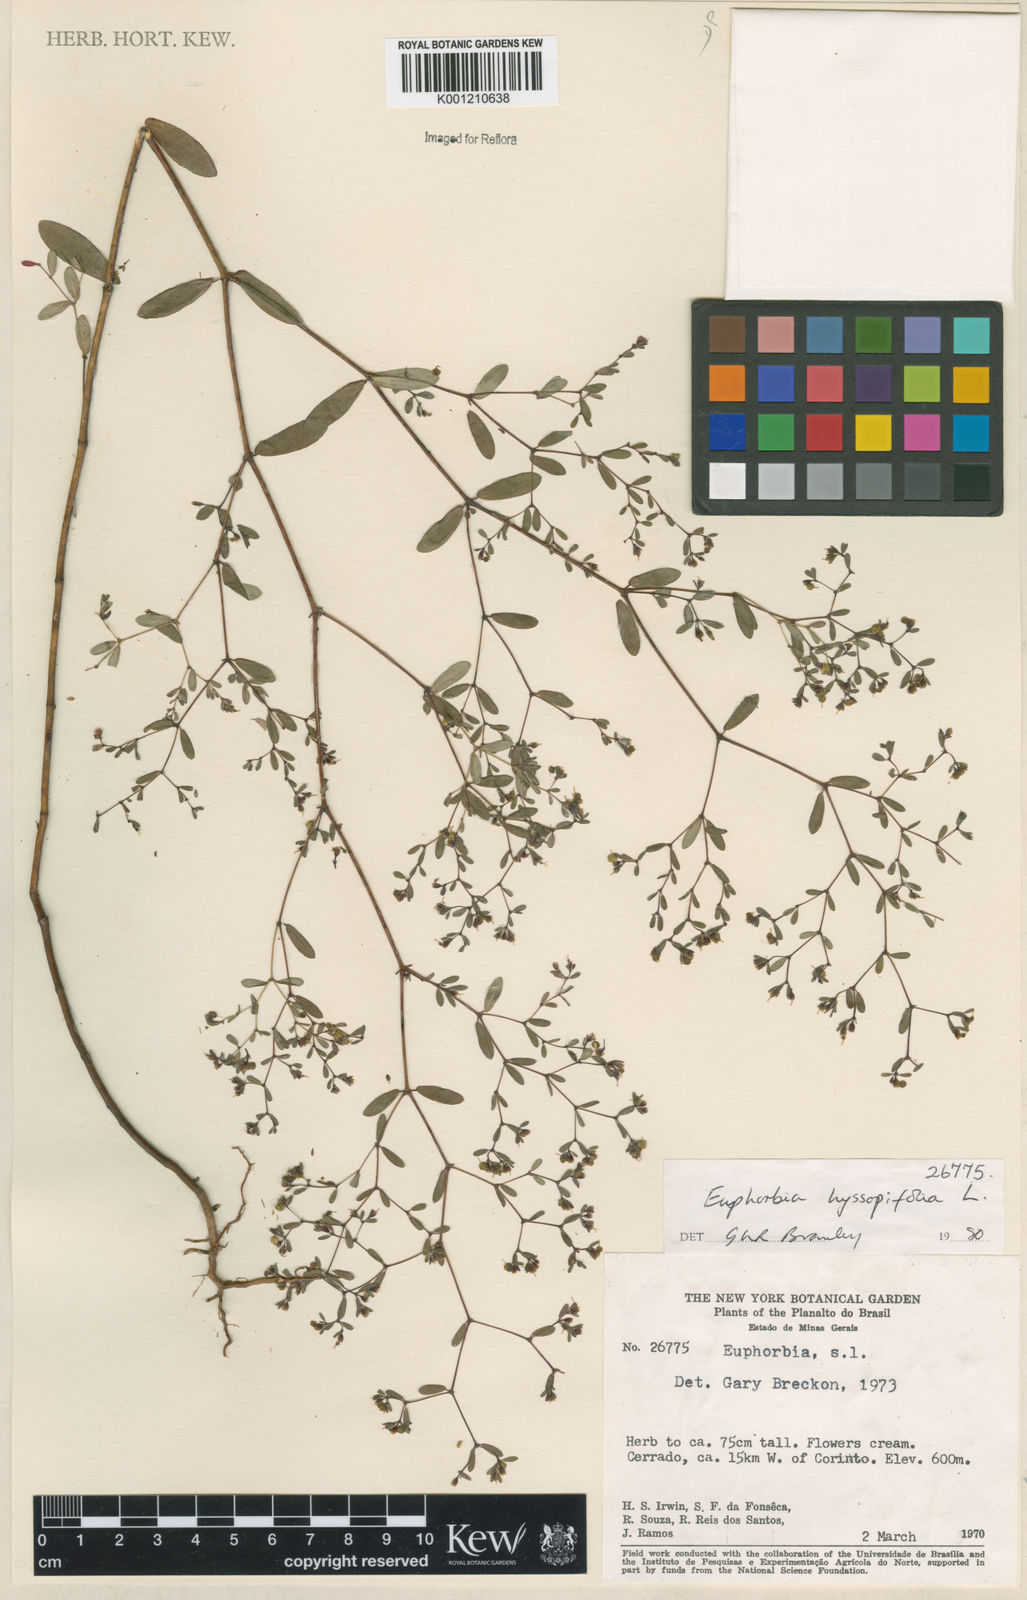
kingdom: Plantae
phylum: Tracheophyta
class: Magnoliopsida
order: Malpighiales
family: Euphorbiaceae
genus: Euphorbia
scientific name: Euphorbia hyssopifolia
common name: Hyssopleaf sandmat
